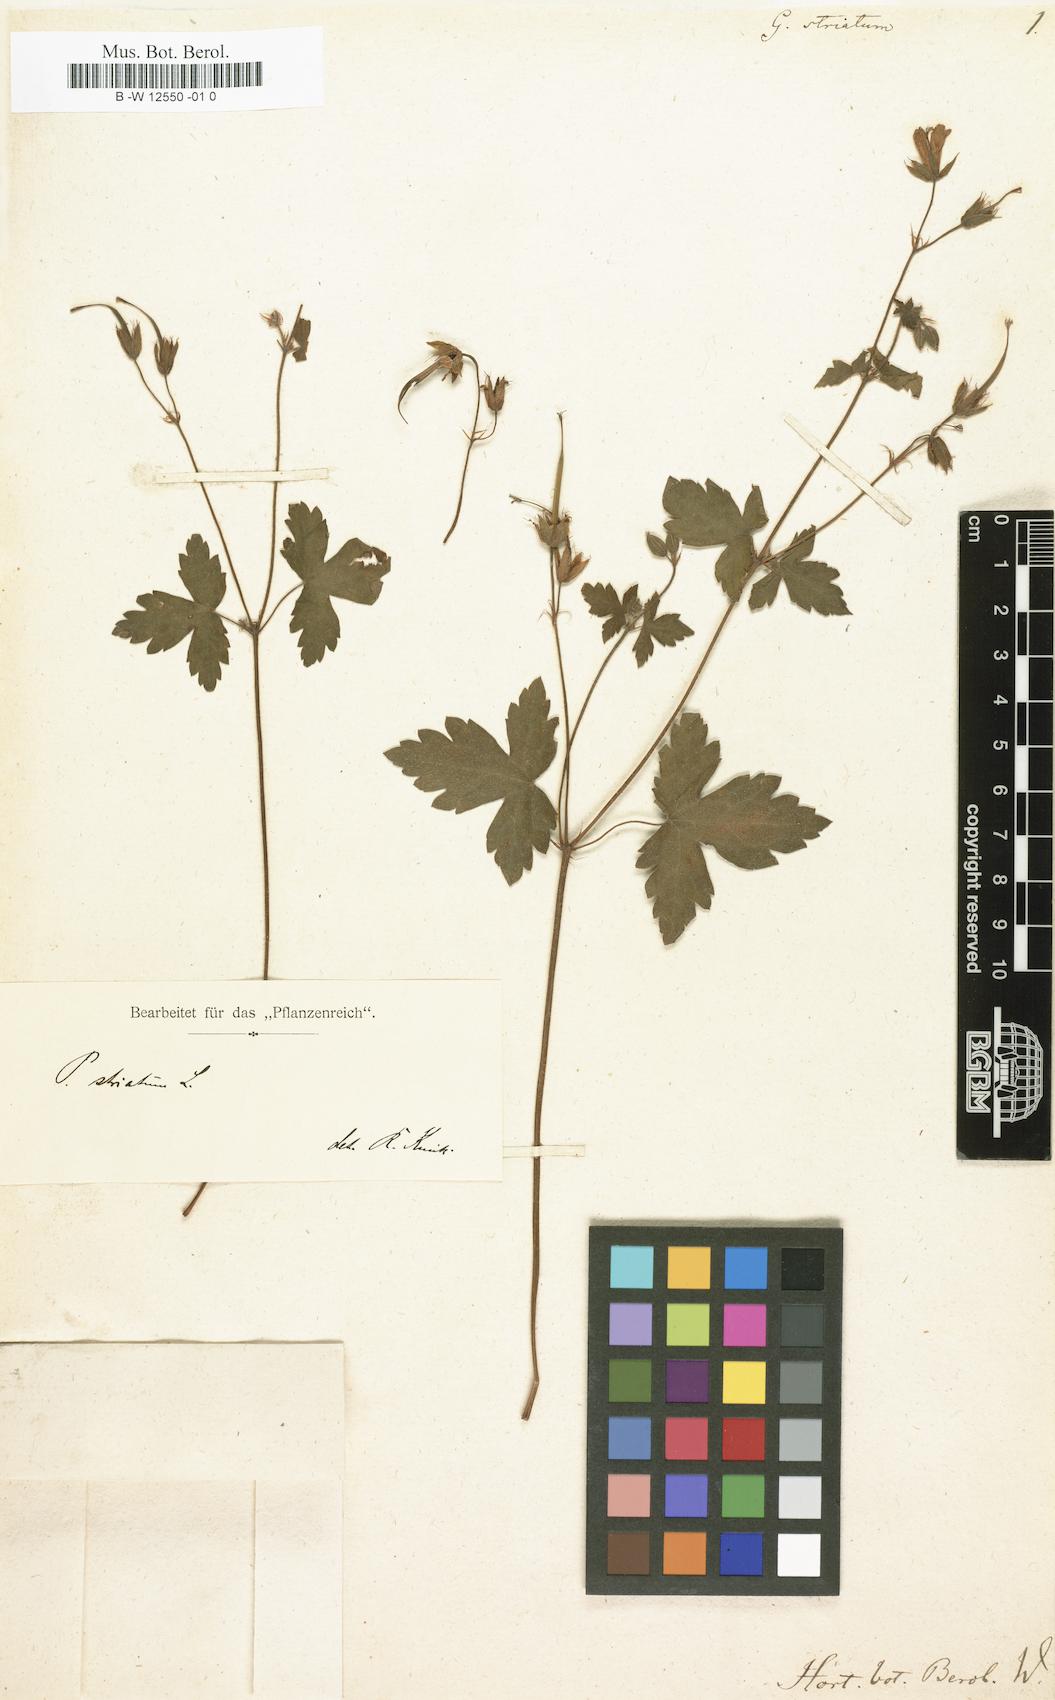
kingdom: Plantae
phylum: Tracheophyta
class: Magnoliopsida
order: Geraniales
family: Geraniaceae
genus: Geranium
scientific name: Geranium
